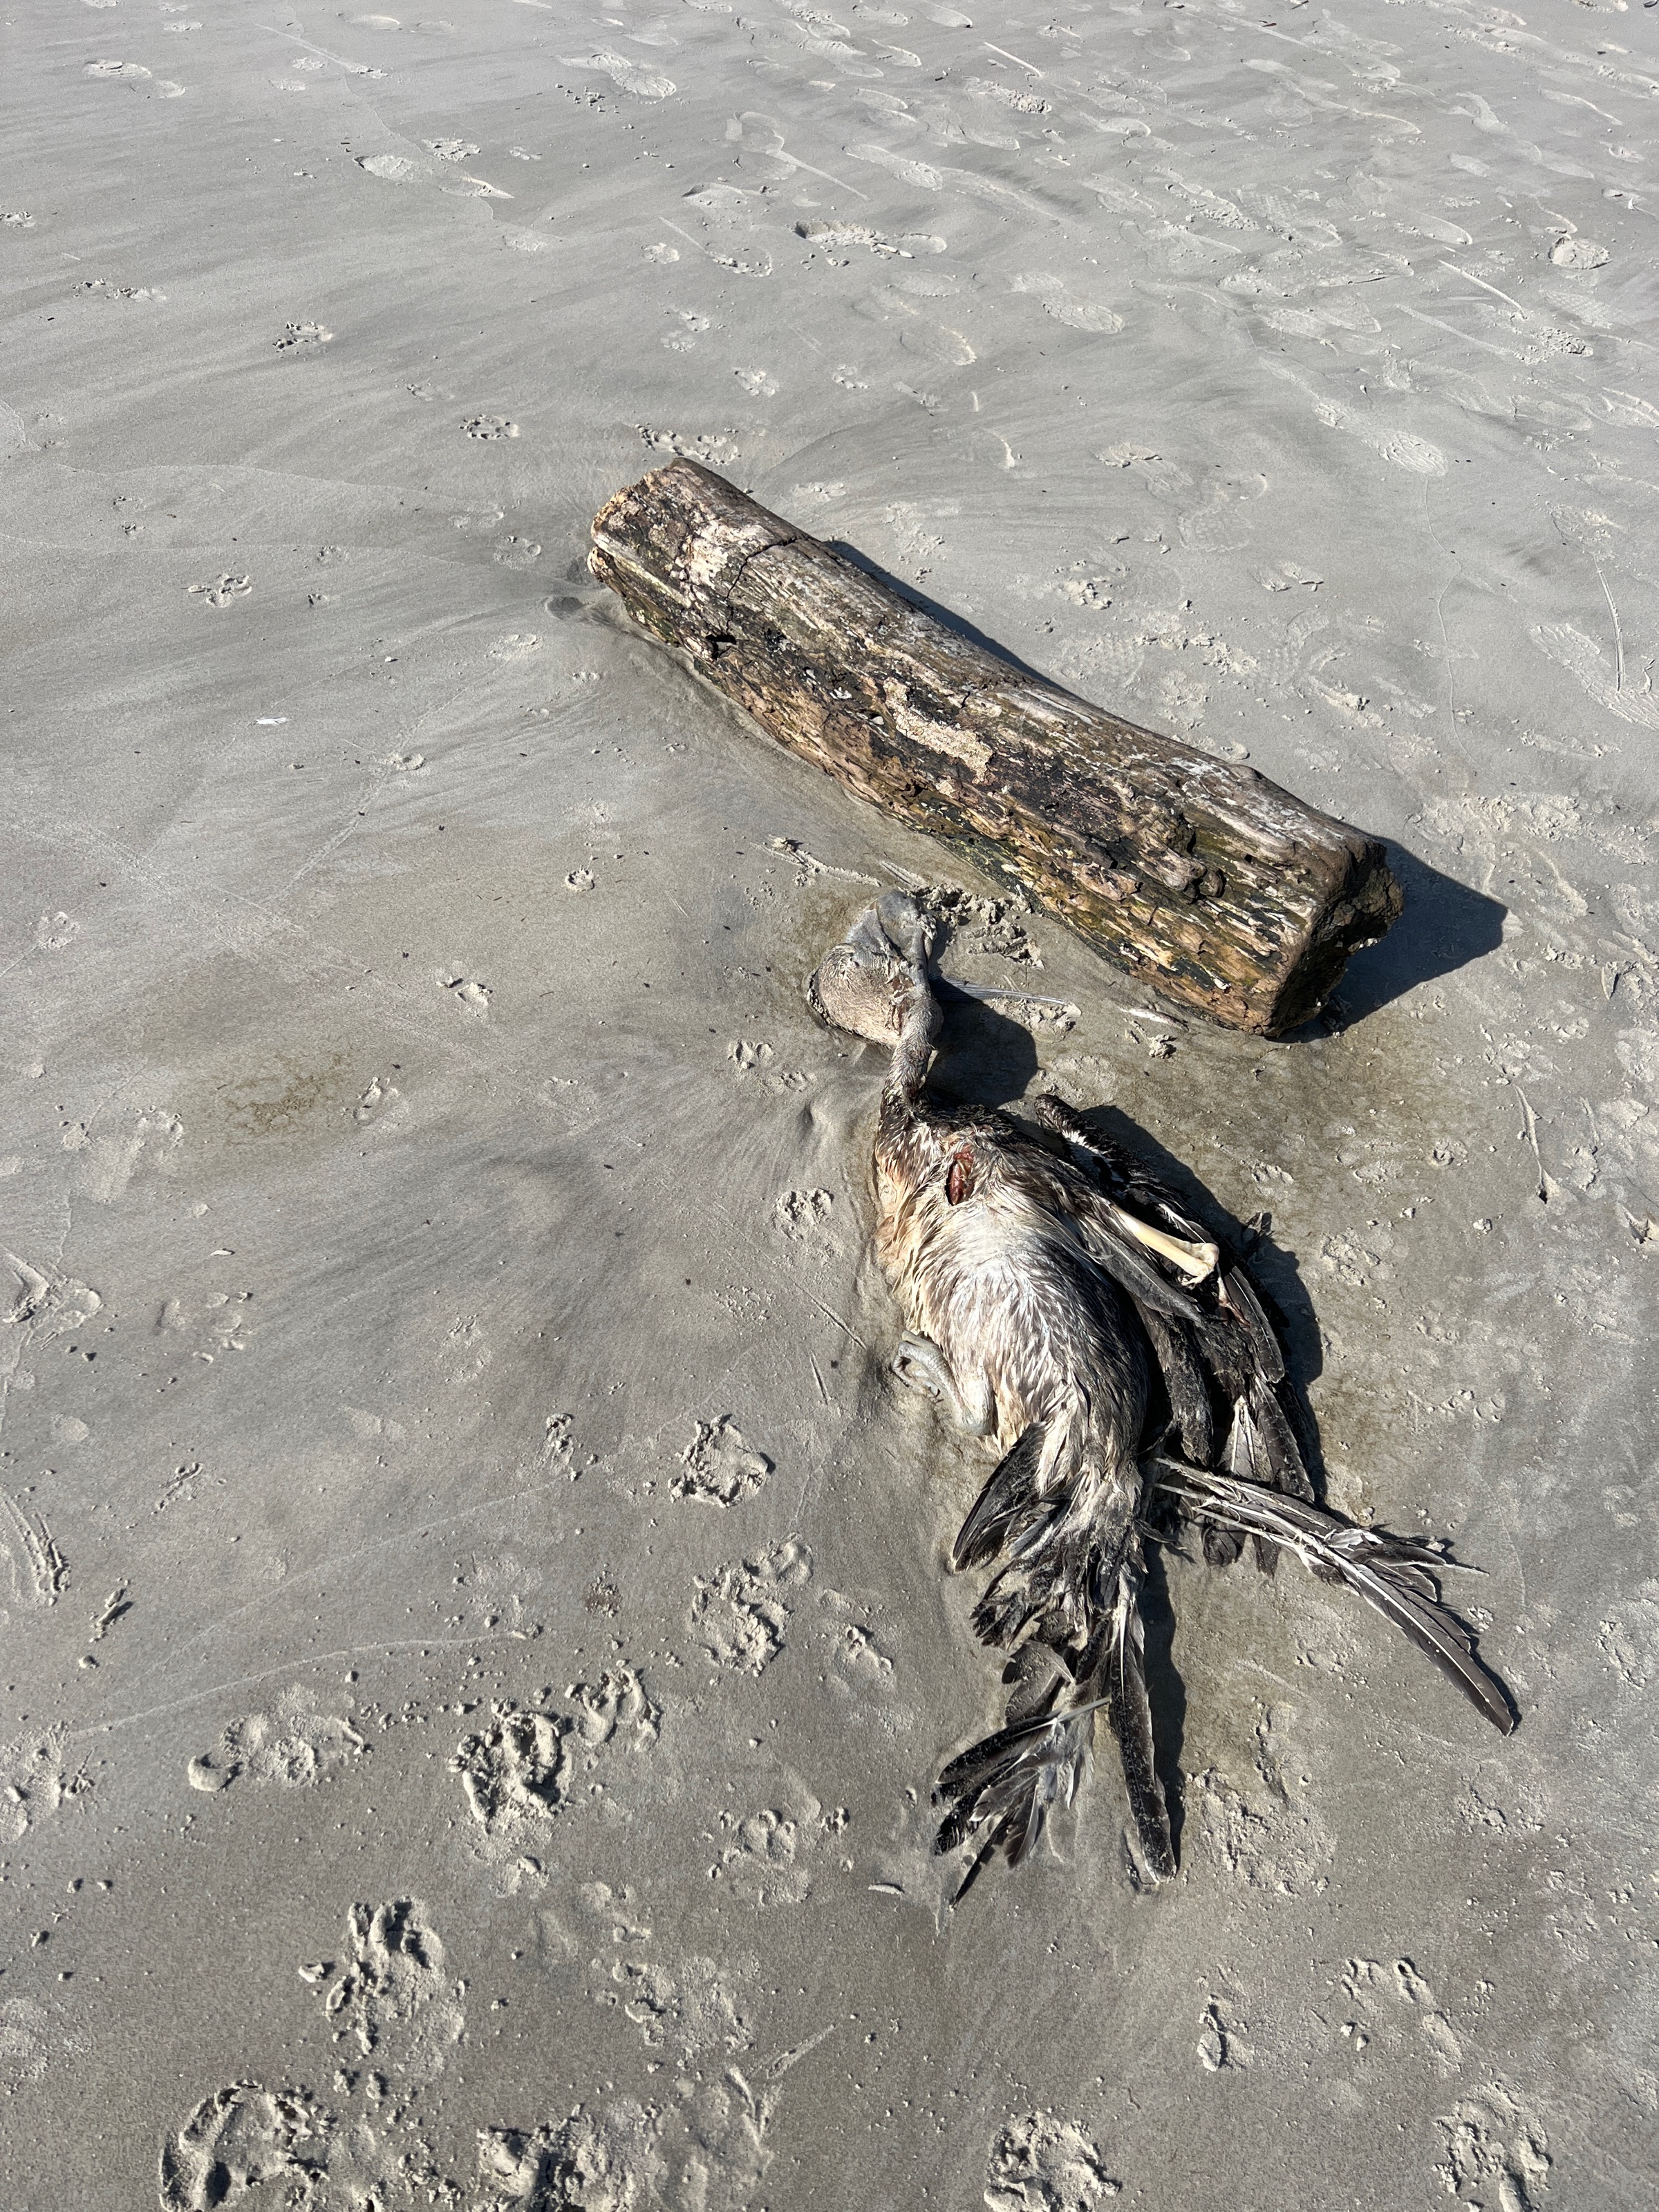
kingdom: Animalia
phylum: Chordata
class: Aves
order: Pelecaniformes
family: Pelecanidae
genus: Pelecanus
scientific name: Pelecanus occidentalis
